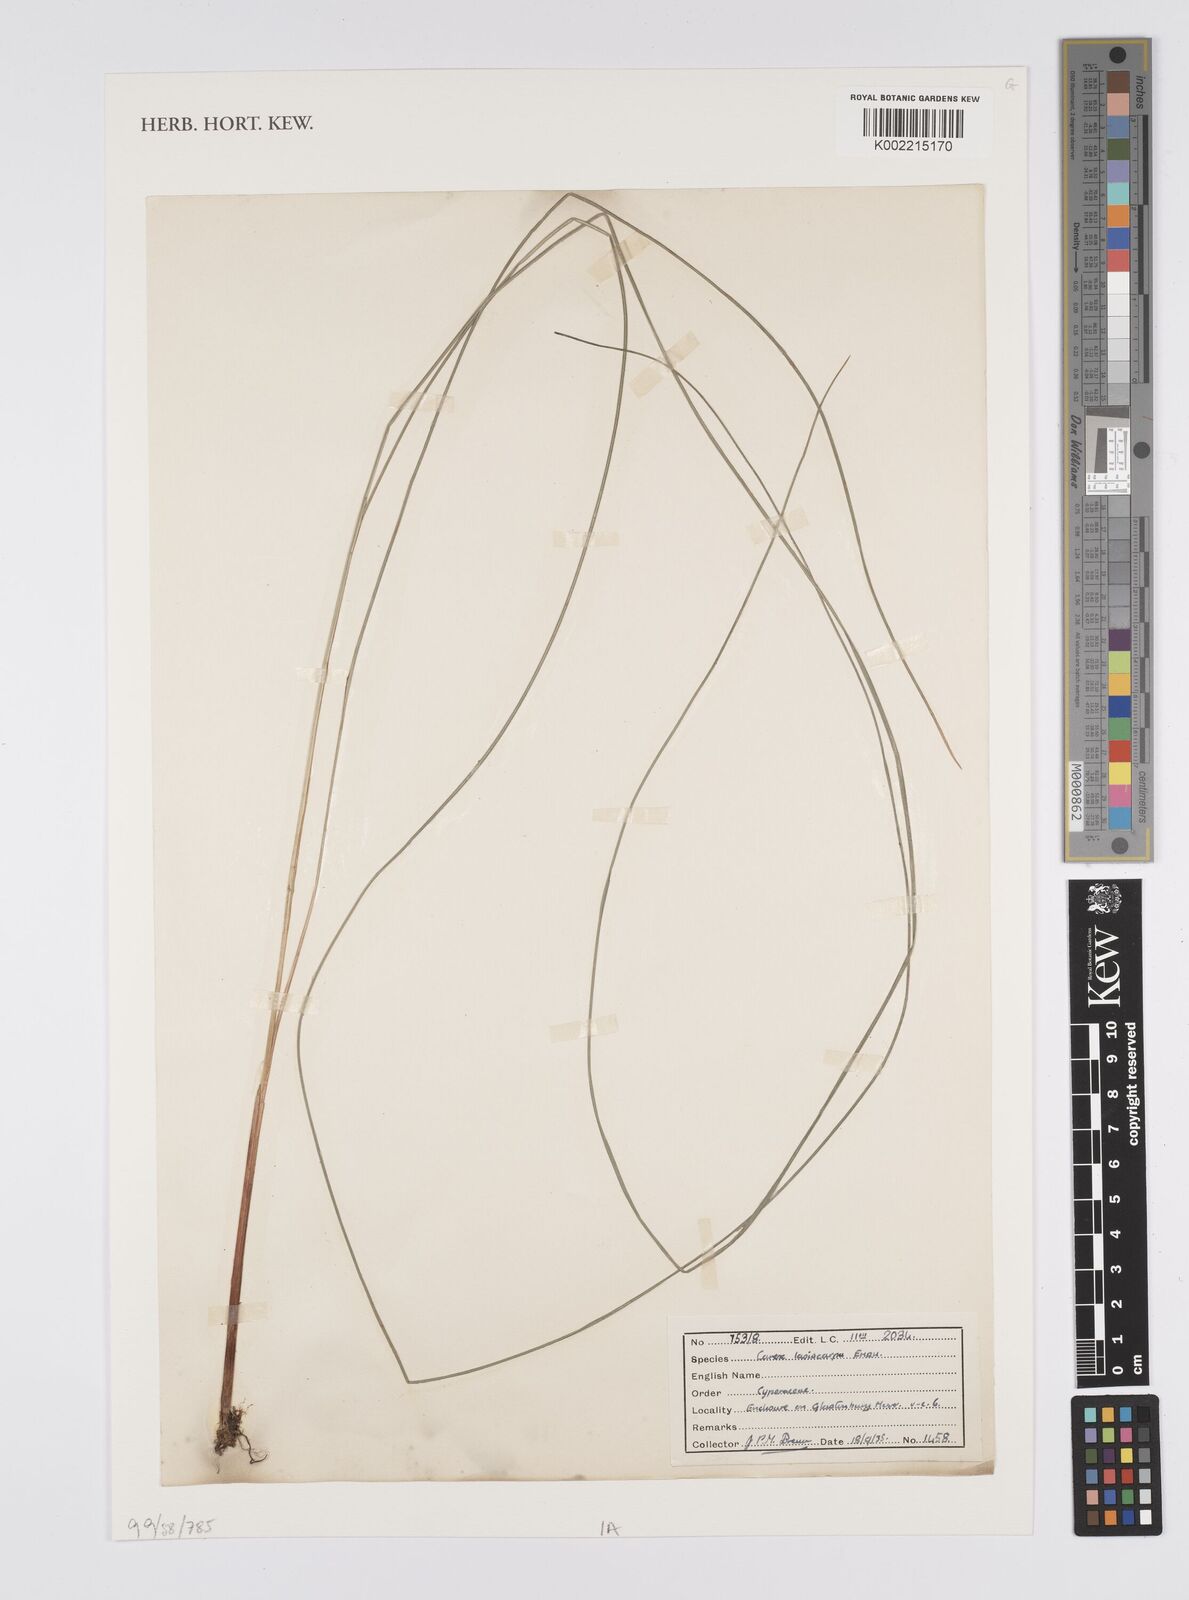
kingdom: Plantae
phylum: Tracheophyta
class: Liliopsida
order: Poales
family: Cyperaceae
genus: Carex
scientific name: Carex lasiocarpa
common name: Slender sedge
